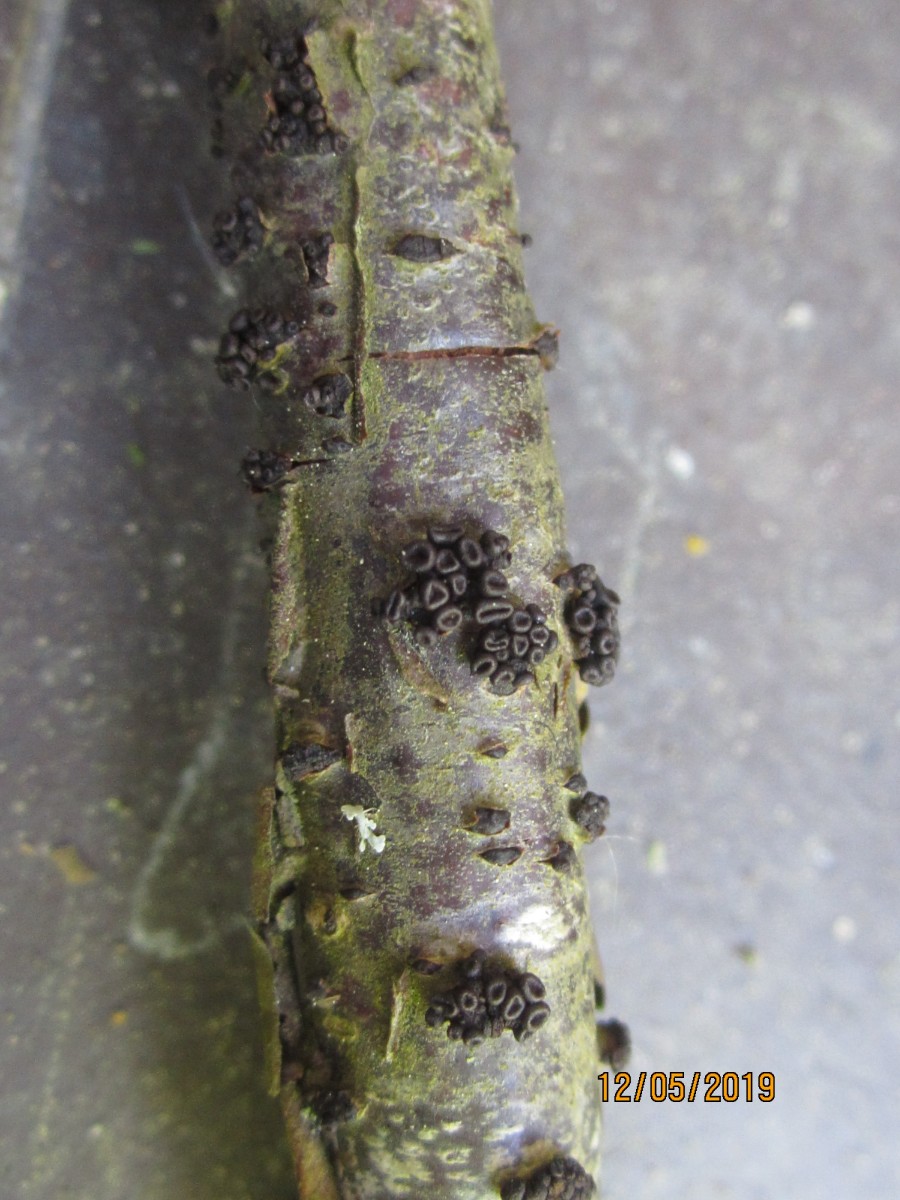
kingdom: Fungi
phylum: Ascomycota
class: Leotiomycetes
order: Helotiales
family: Godroniaceae
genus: Godronia
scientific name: Godronia ribis
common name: ribs-urneskive
